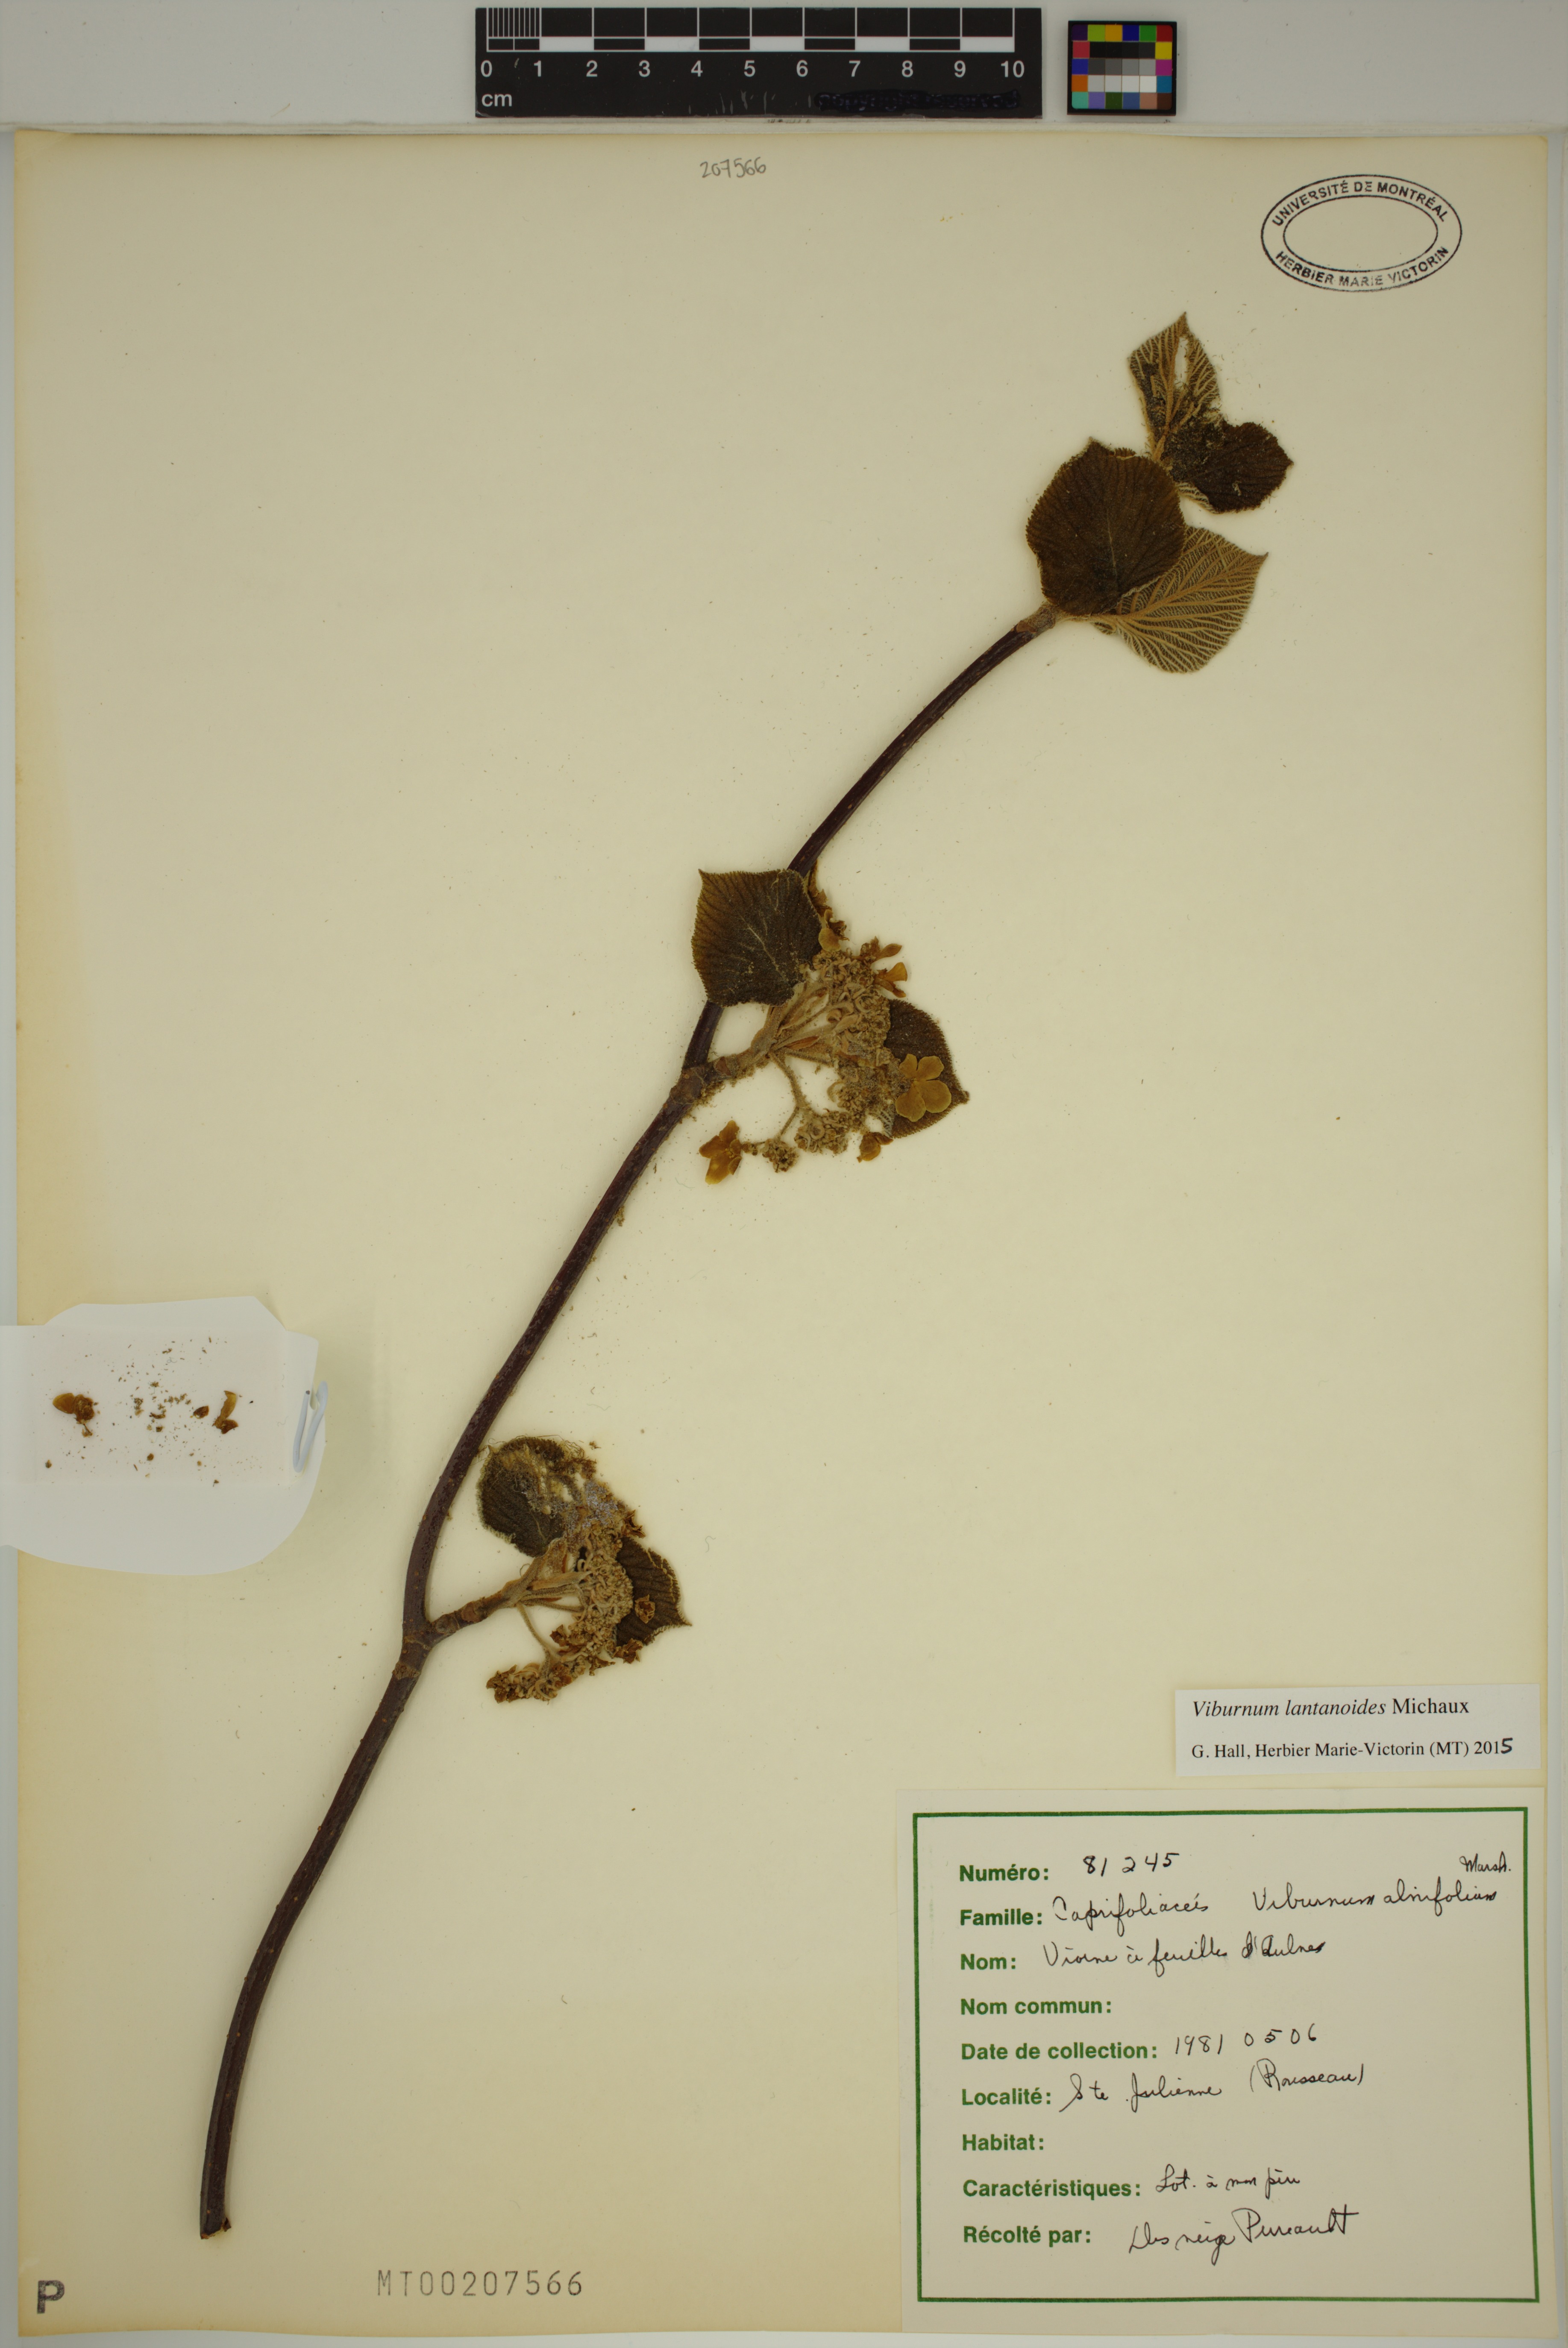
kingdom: Plantae
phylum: Tracheophyta
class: Magnoliopsida
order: Dipsacales
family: Viburnaceae
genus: Viburnum
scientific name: Viburnum lantanoides
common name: Hobblebush
